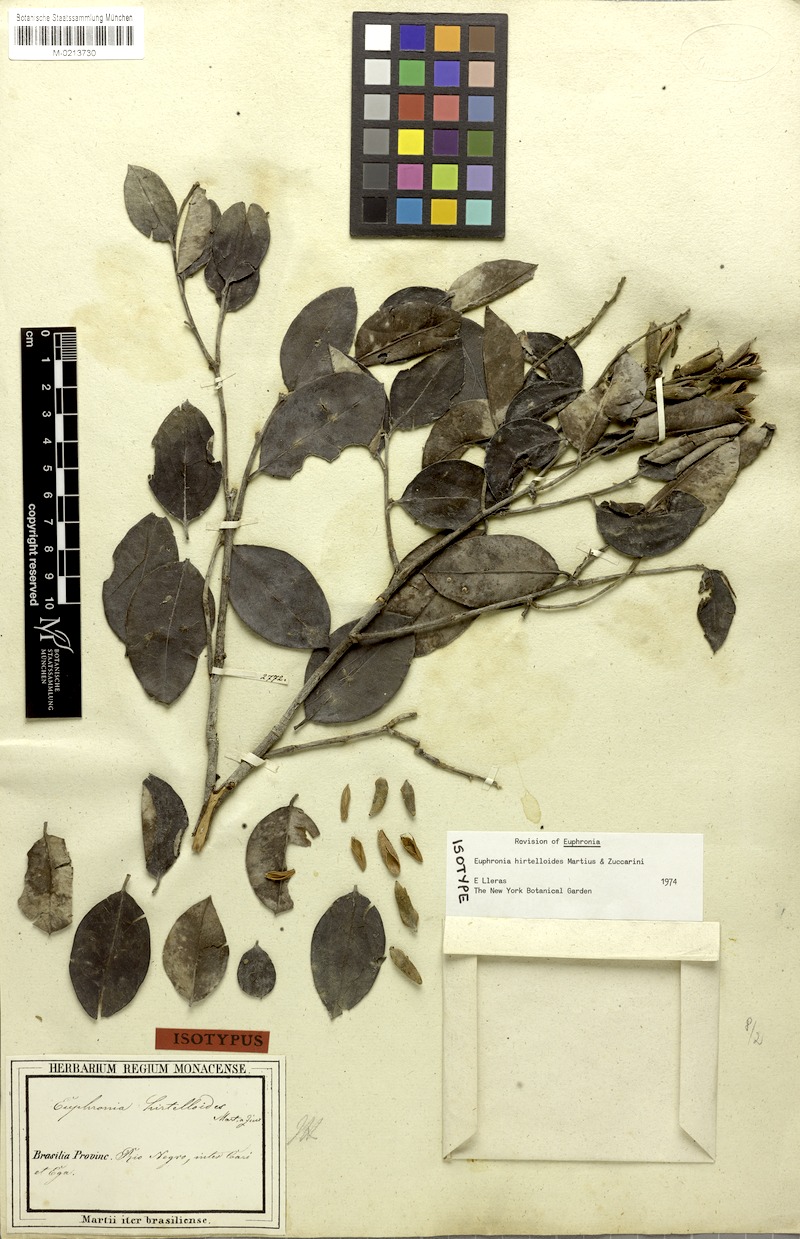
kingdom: Plantae
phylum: Tracheophyta
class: Magnoliopsida
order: Malpighiales
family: Euphroniaceae
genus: Euphronia
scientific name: Euphronia hirtelloides
